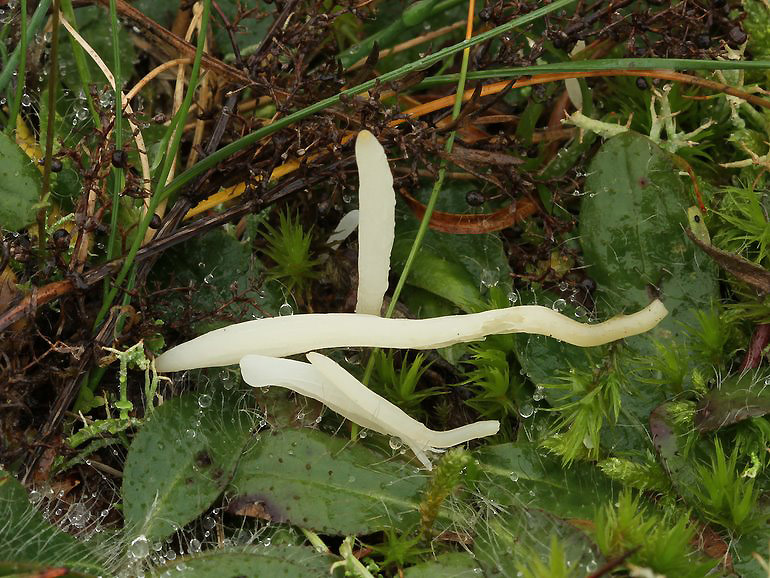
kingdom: Fungi
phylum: Basidiomycota
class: Agaricomycetes
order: Agaricales
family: Clavariaceae
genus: Clavaria
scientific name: Clavaria falcata
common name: hvid køllesvamp
